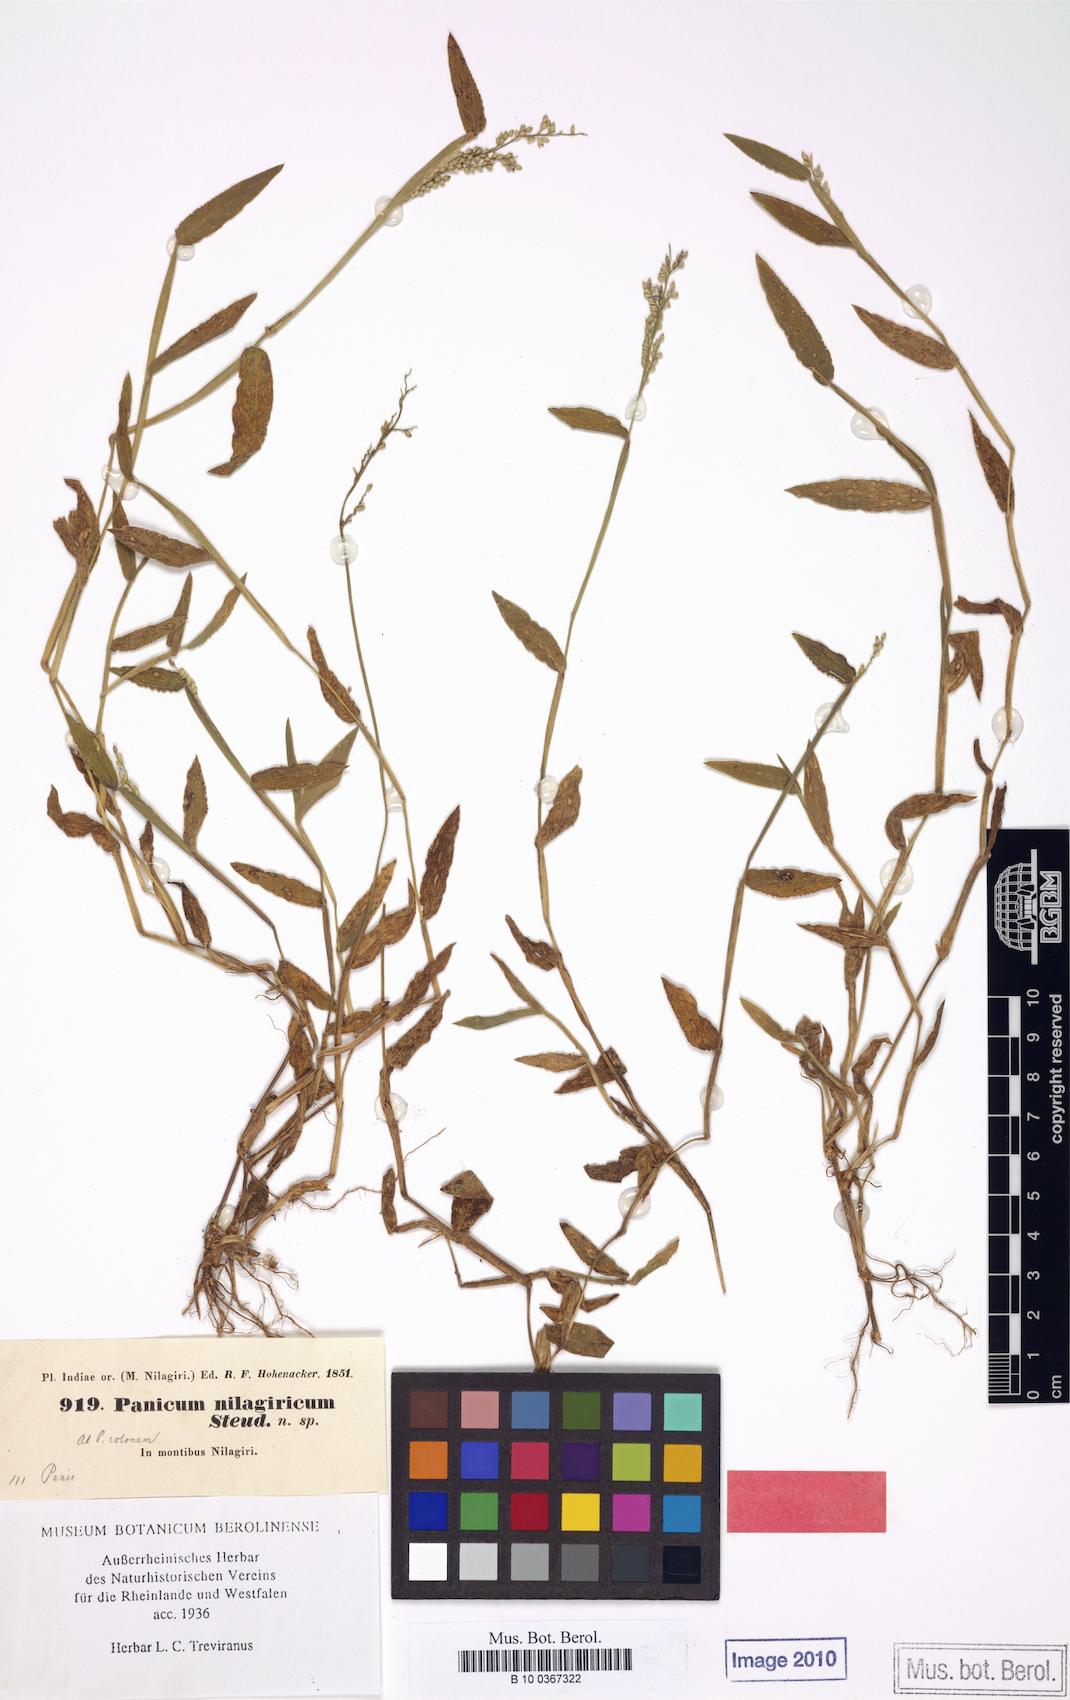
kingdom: Plantae
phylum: Tracheophyta
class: Liliopsida
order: Poales
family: Poaceae
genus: Urochloa
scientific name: Urochloa reptans
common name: Sprawling signalgrass
